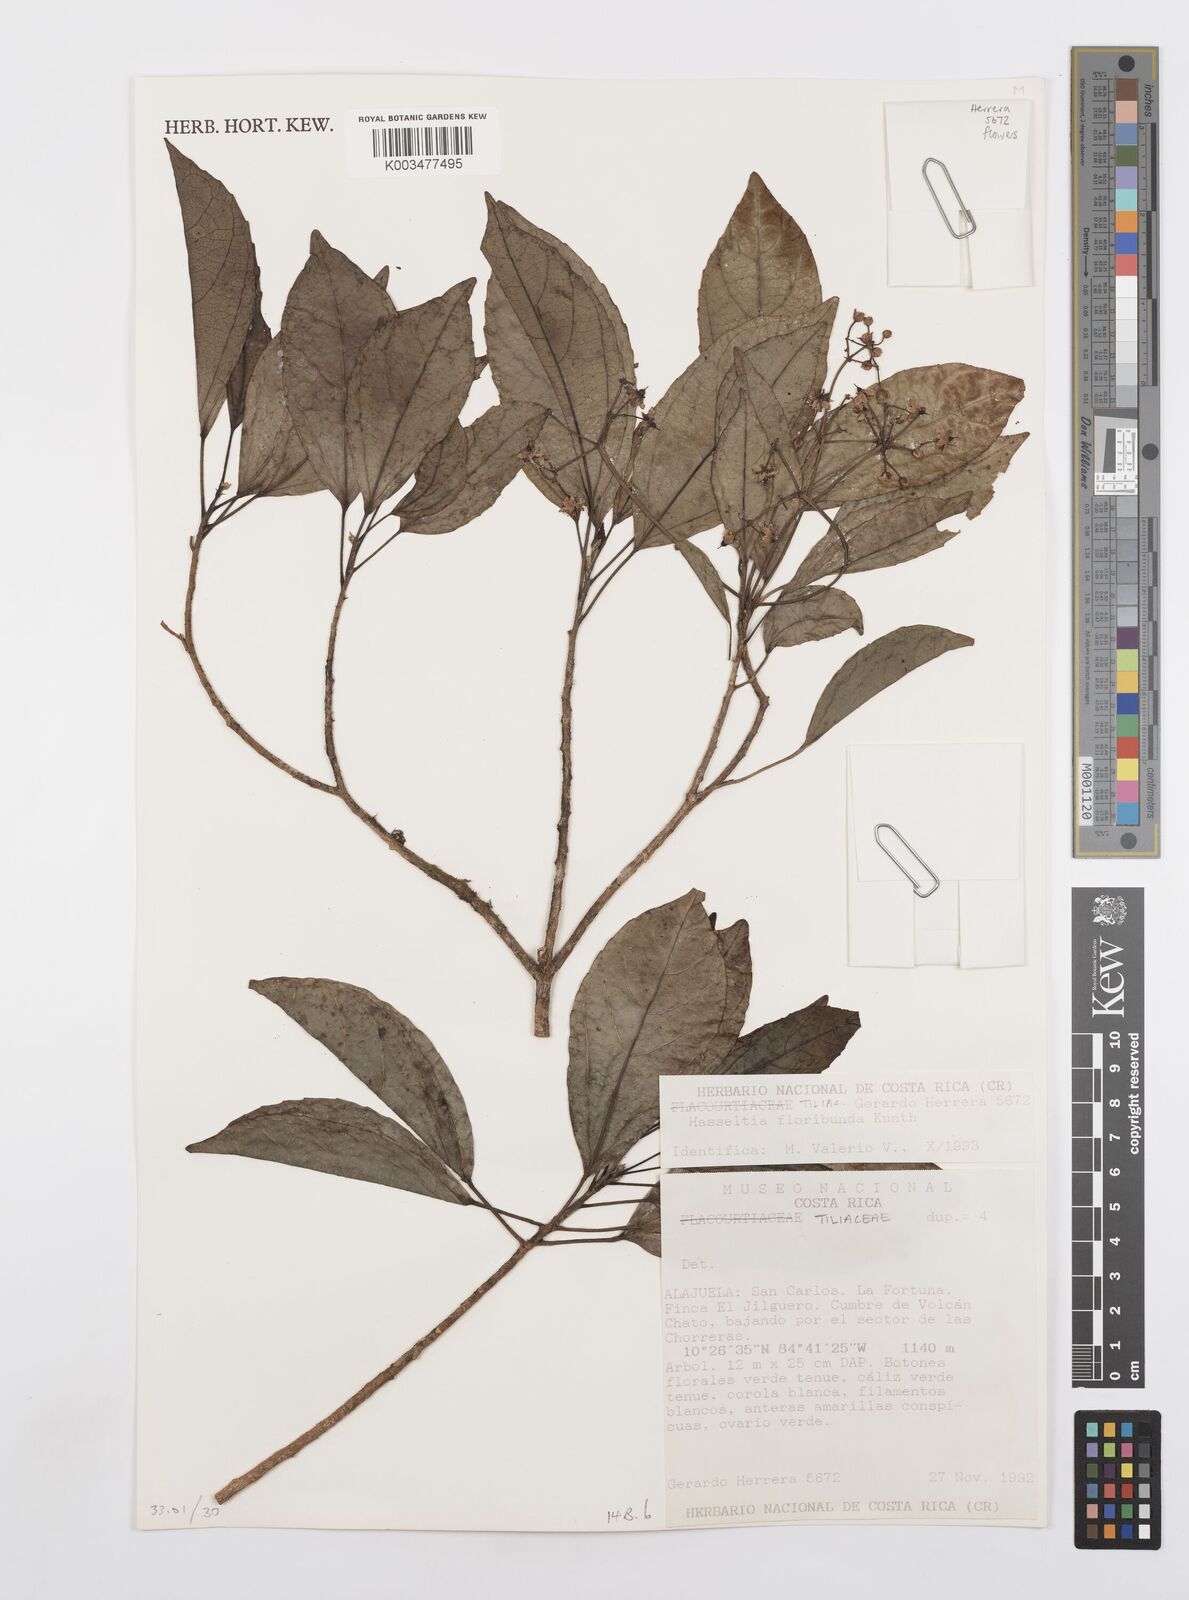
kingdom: Plantae
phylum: Tracheophyta
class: Magnoliopsida
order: Malpighiales
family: Salicaceae
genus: Hasseltia
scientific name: Hasseltia floribunda
